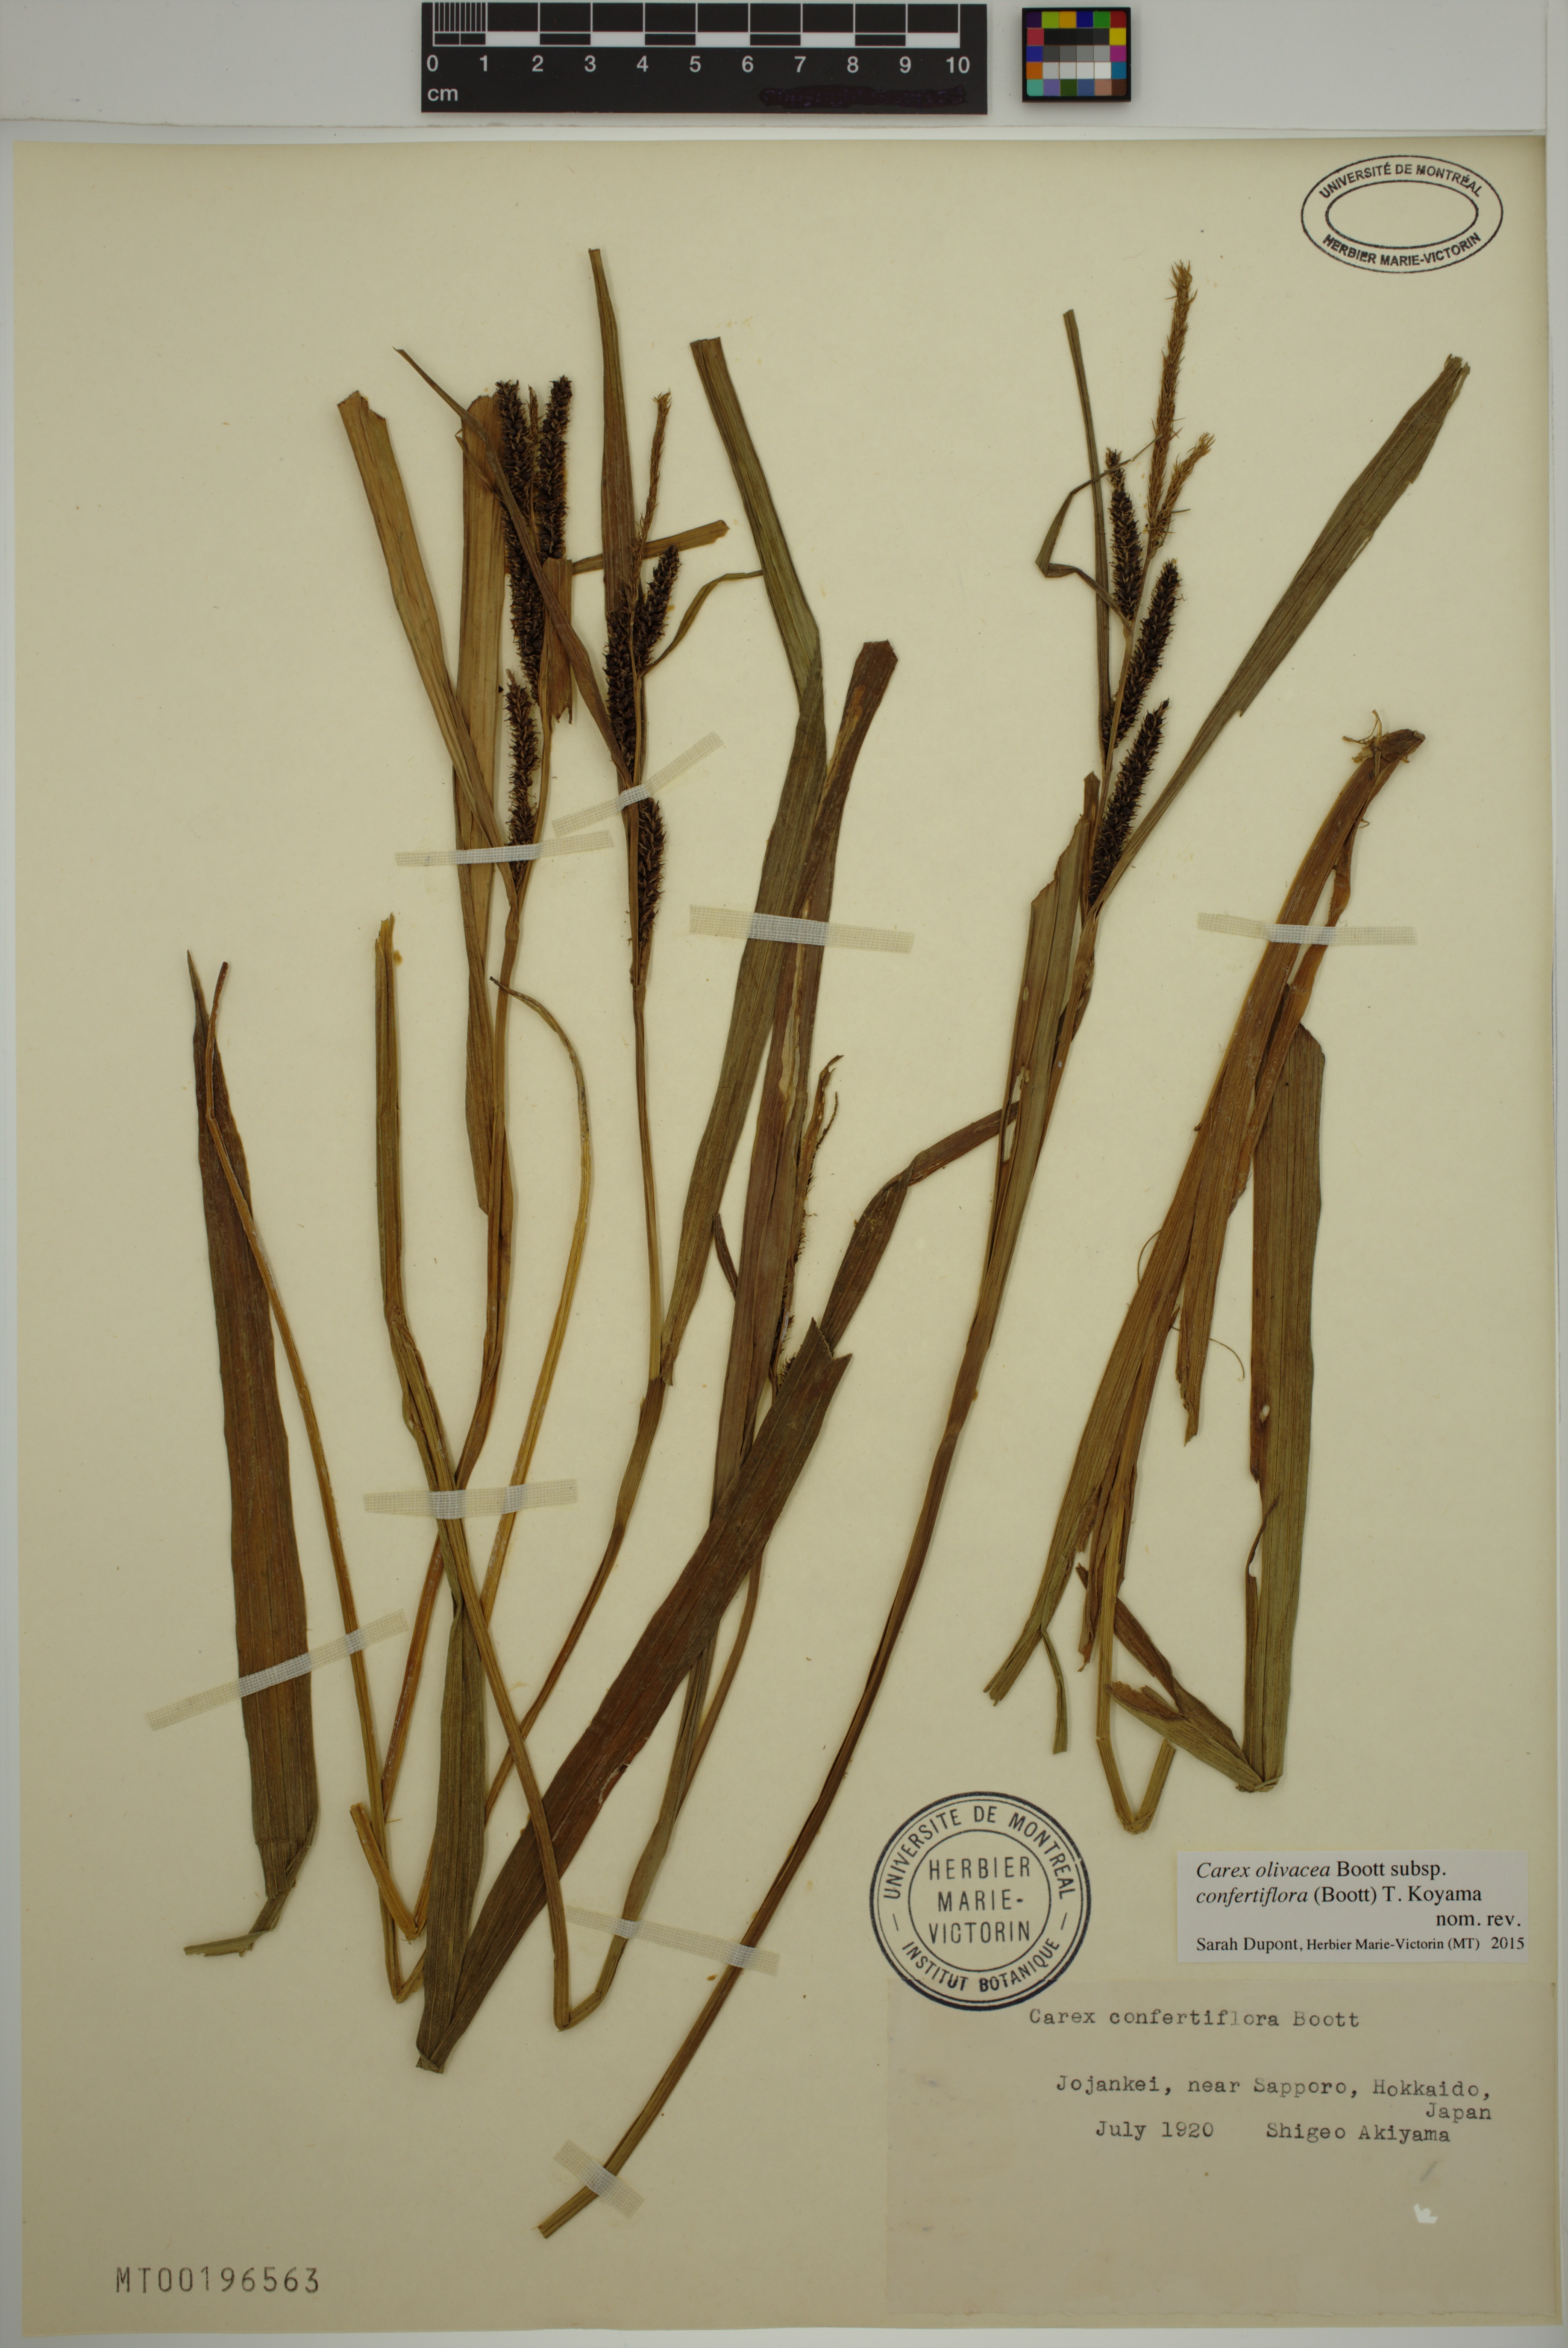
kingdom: Plantae
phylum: Tracheophyta
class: Liliopsida
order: Poales
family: Cyperaceae
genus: Carex
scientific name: Carex olivacea
